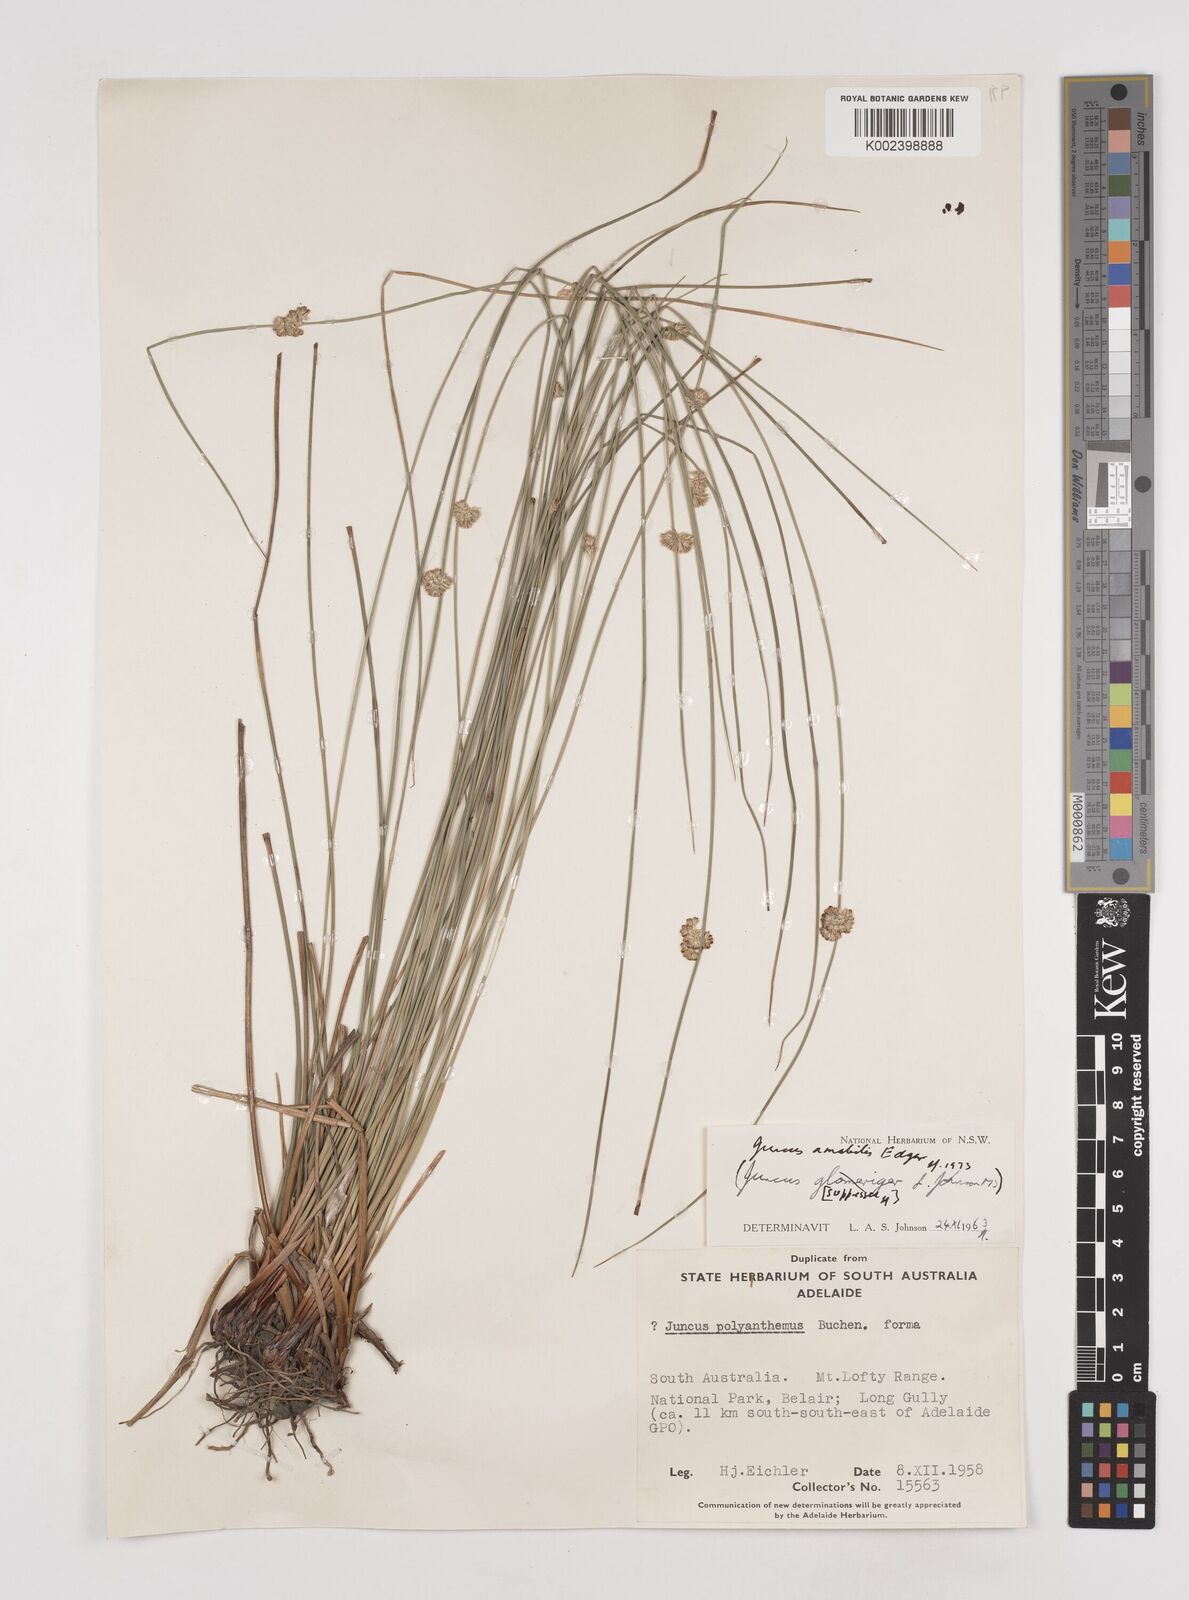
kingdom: Plantae
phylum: Tracheophyta
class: Liliopsida
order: Poales
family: Juncaceae
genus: Juncus
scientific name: Juncus amabilis
